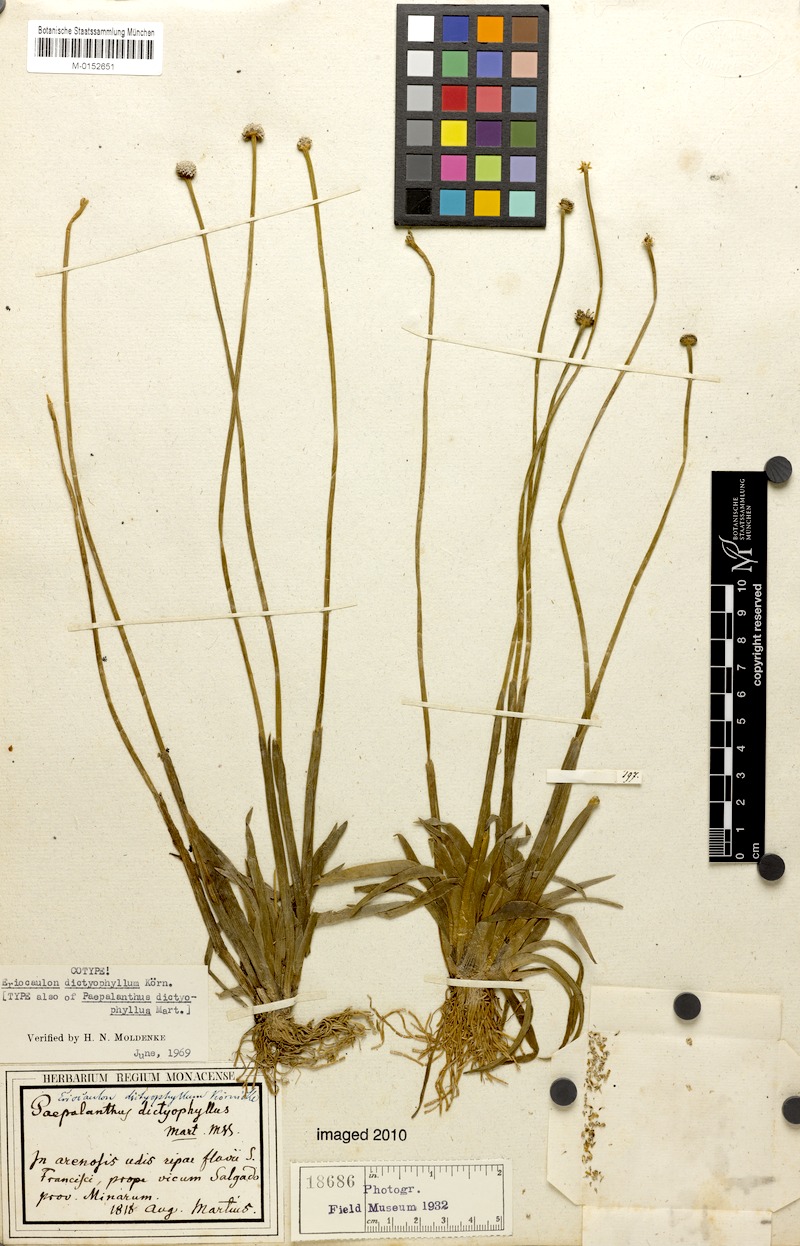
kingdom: Plantae
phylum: Tracheophyta
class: Liliopsida
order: Poales
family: Eriocaulaceae
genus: Eriocaulon
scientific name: Eriocaulon dictyophyllum
